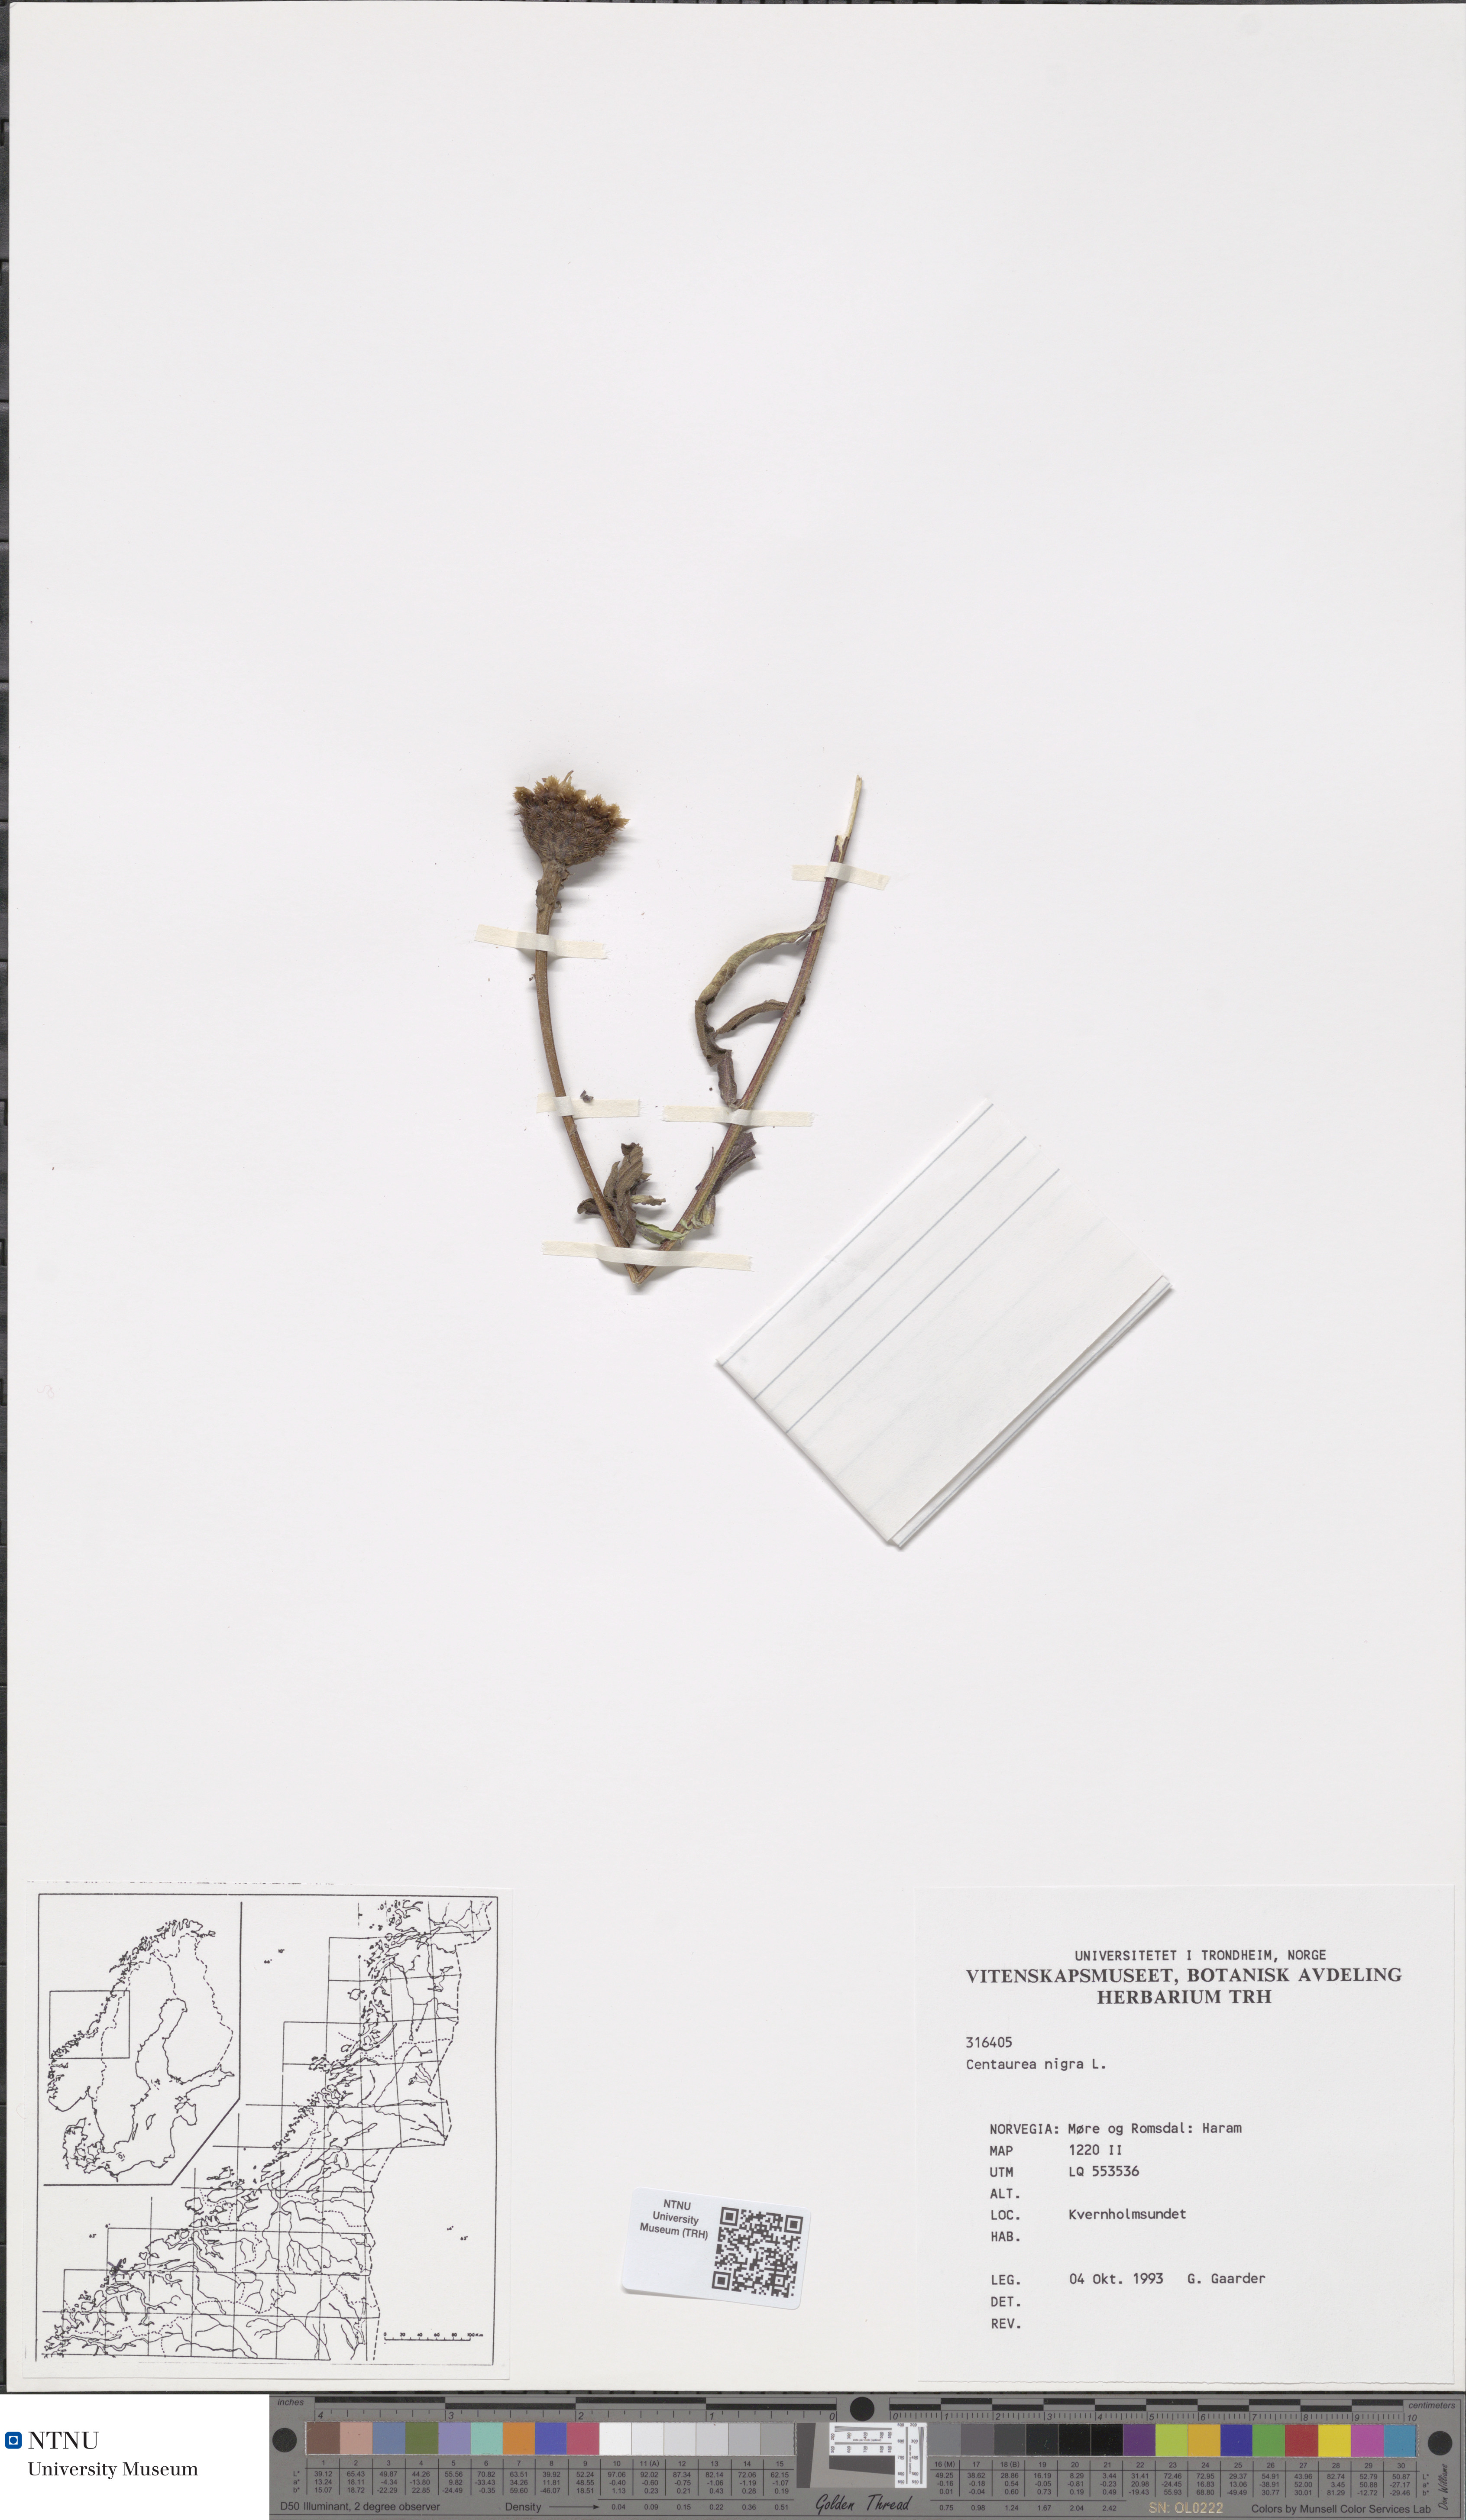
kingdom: Plantae
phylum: Tracheophyta
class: Magnoliopsida
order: Asterales
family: Asteraceae
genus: Centaurea
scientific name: Centaurea nigra
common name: Lesser knapweed
